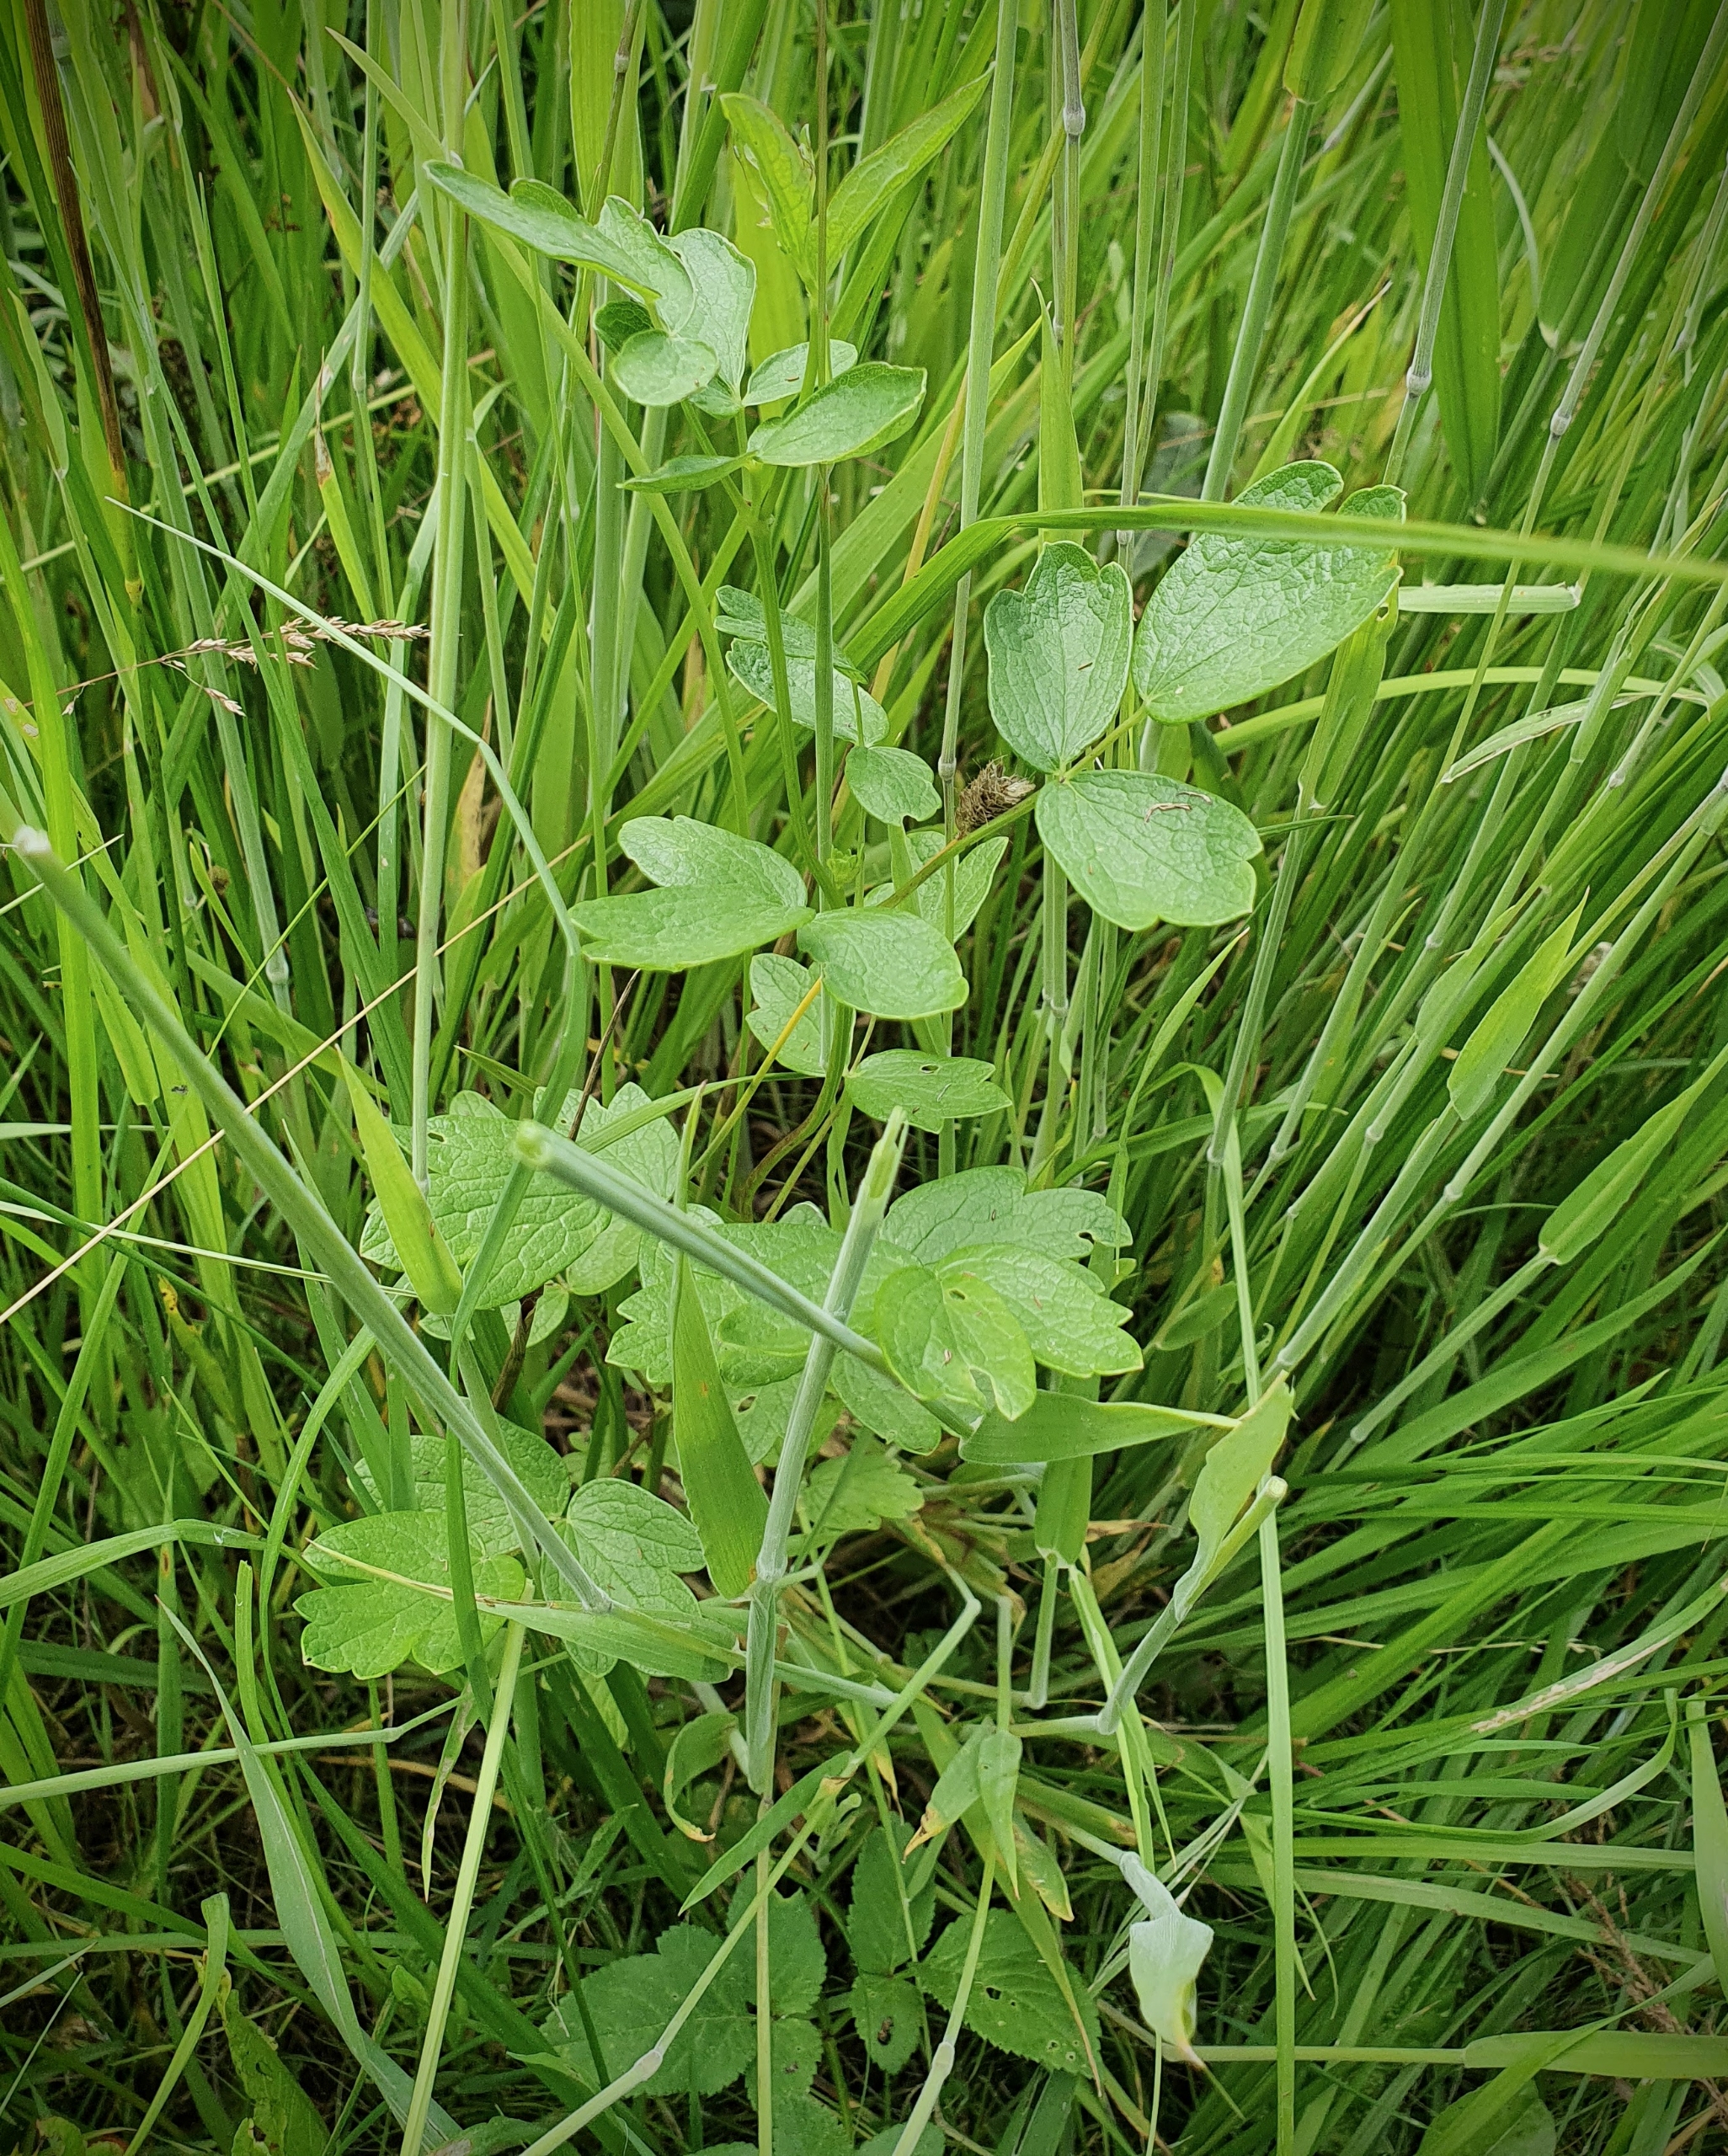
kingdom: Plantae
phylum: Tracheophyta
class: Magnoliopsida
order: Ranunculales
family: Ranunculaceae
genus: Thalictrum
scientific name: Thalictrum flavum
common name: Gul frøstjerne
